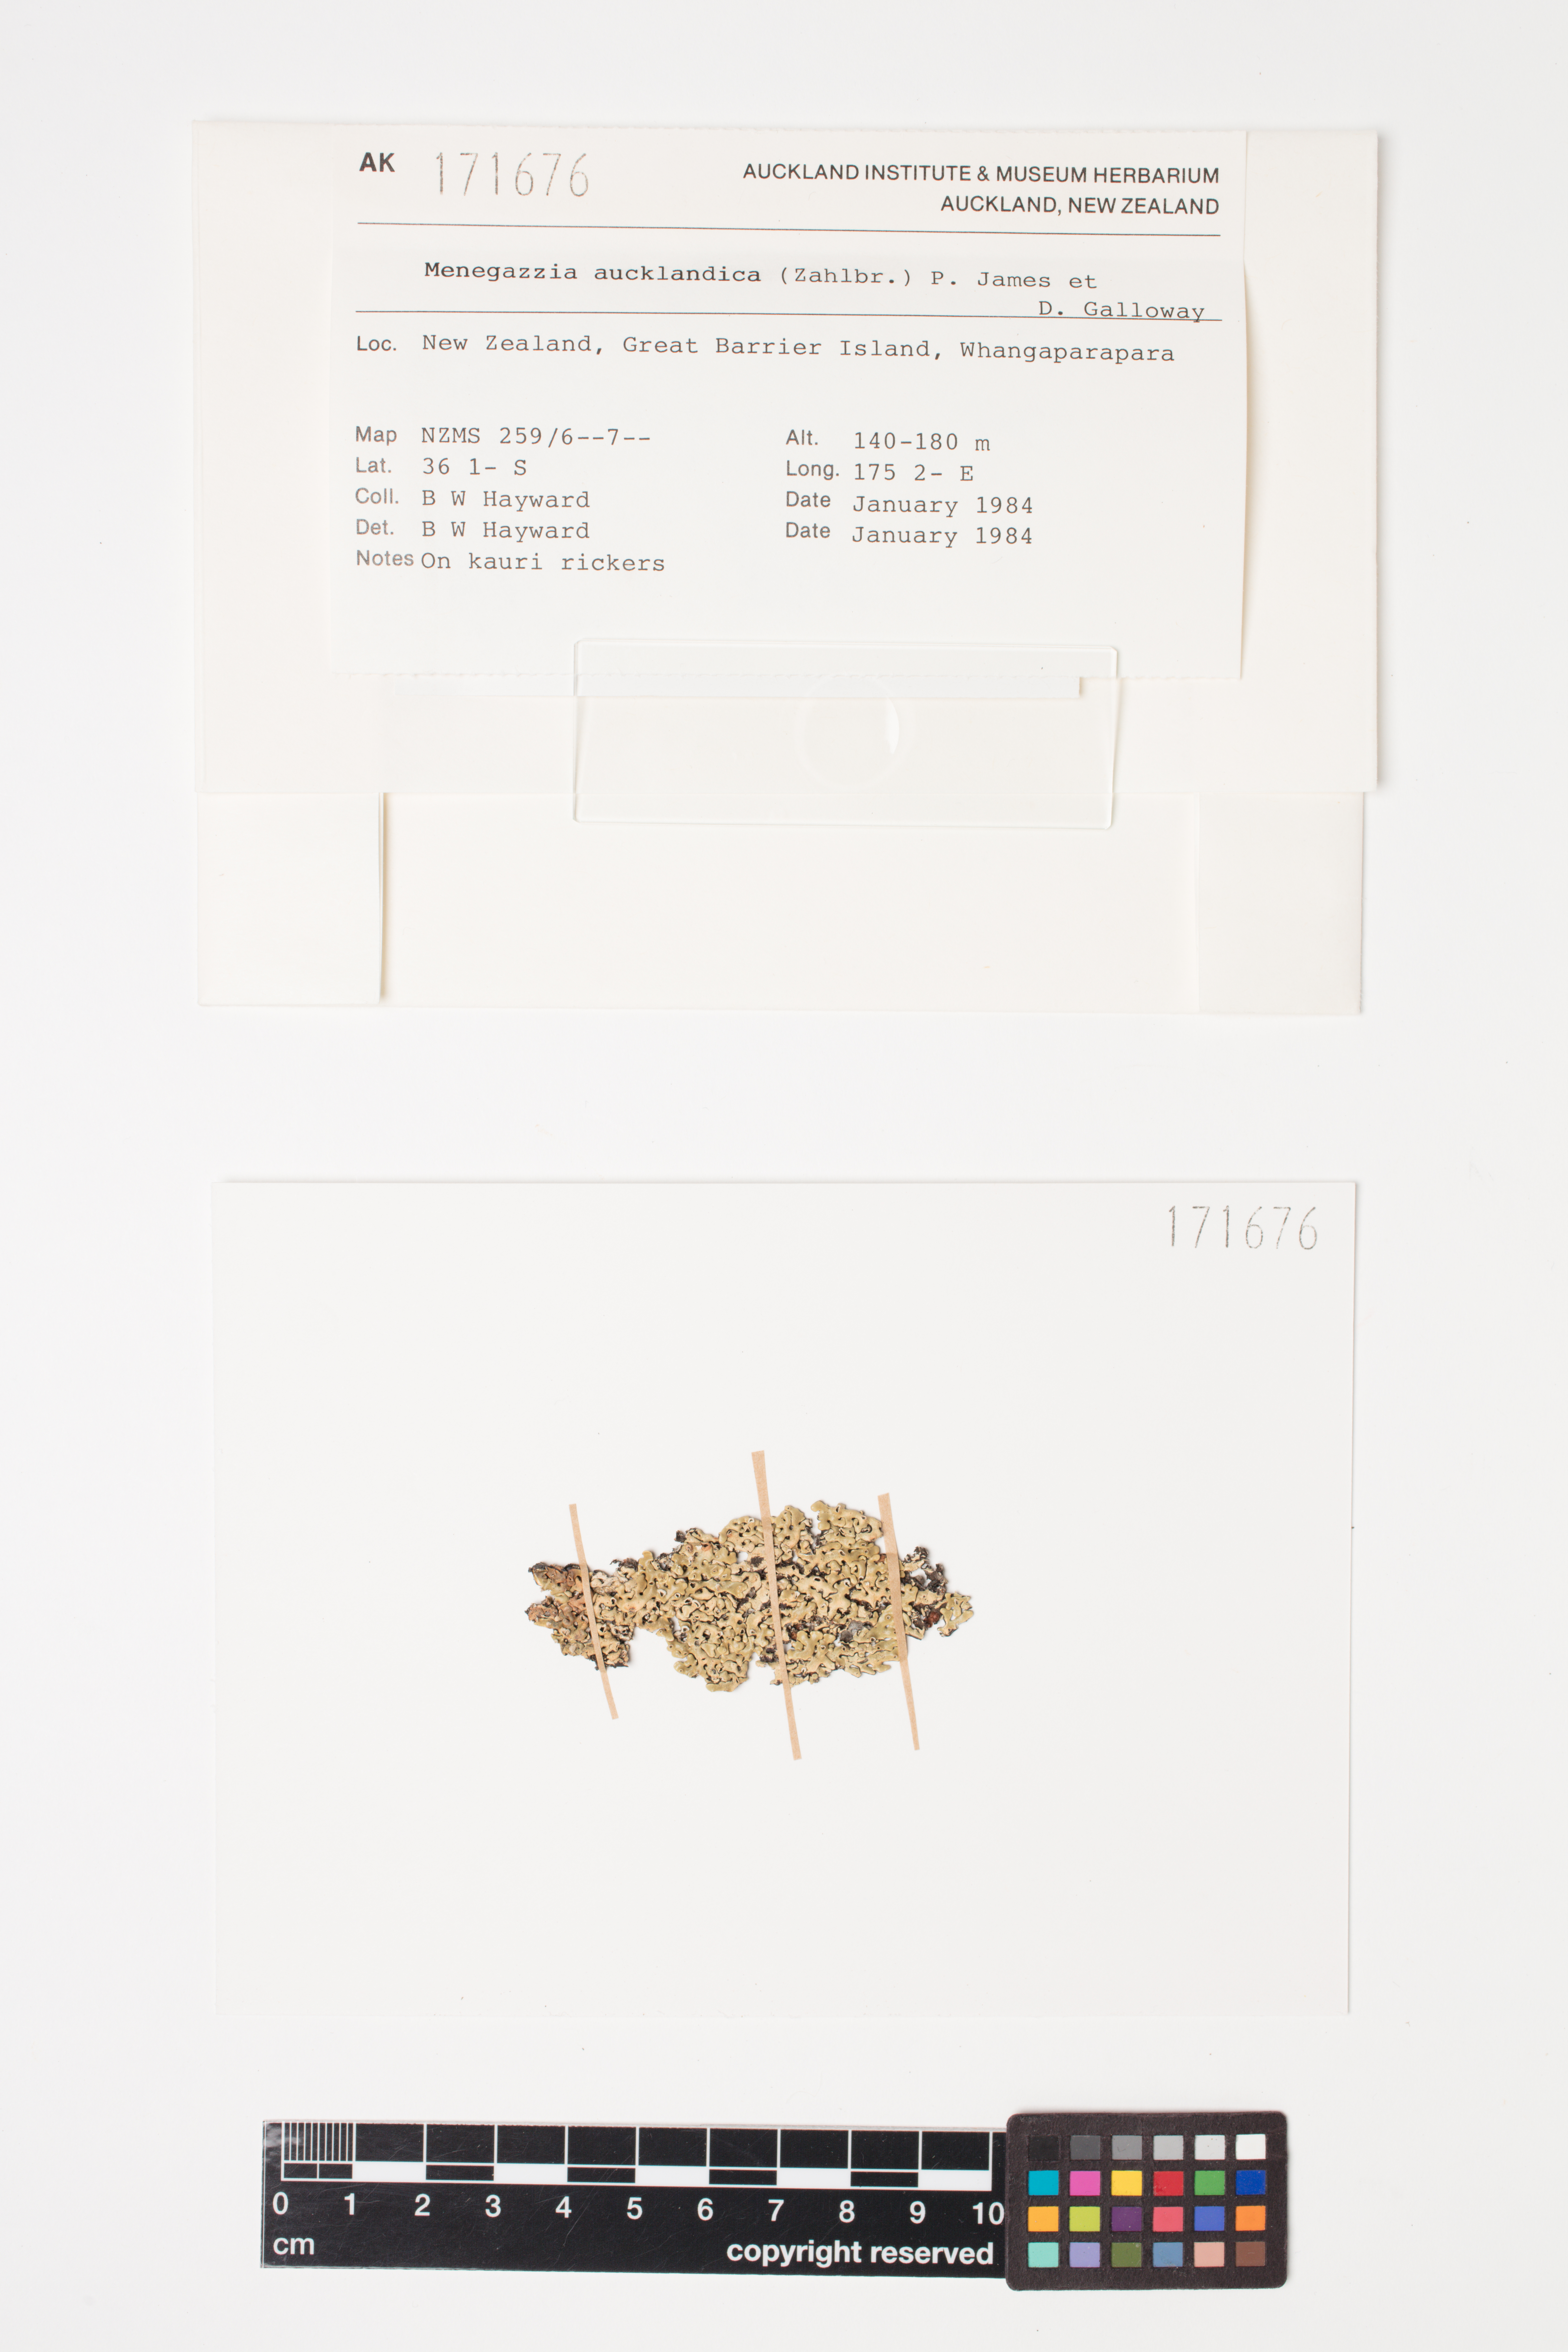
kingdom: Fungi
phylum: Ascomycota
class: Lecanoromycetes
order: Lecanorales
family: Parmeliaceae
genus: Menegazzia
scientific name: Menegazzia aucklandica
